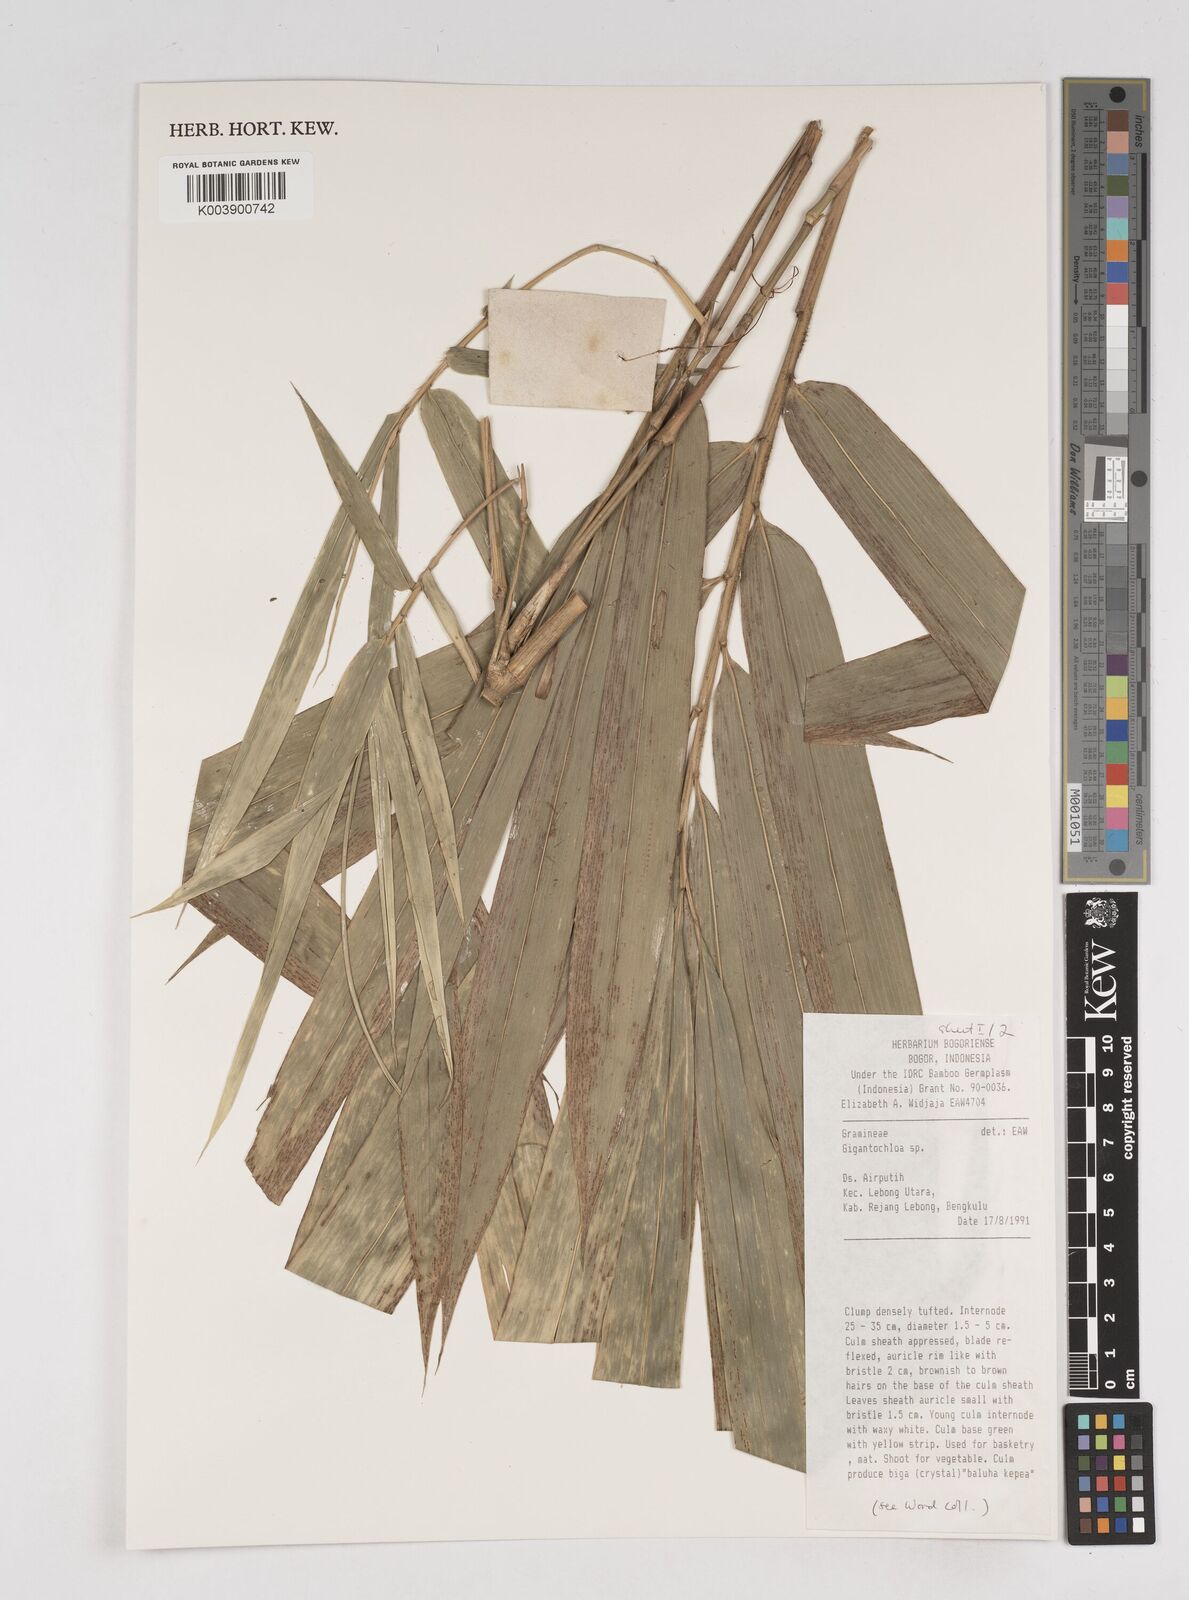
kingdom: Plantae
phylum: Tracheophyta
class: Liliopsida
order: Poales
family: Poaceae
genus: Gigantochloa
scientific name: Gigantochloa
